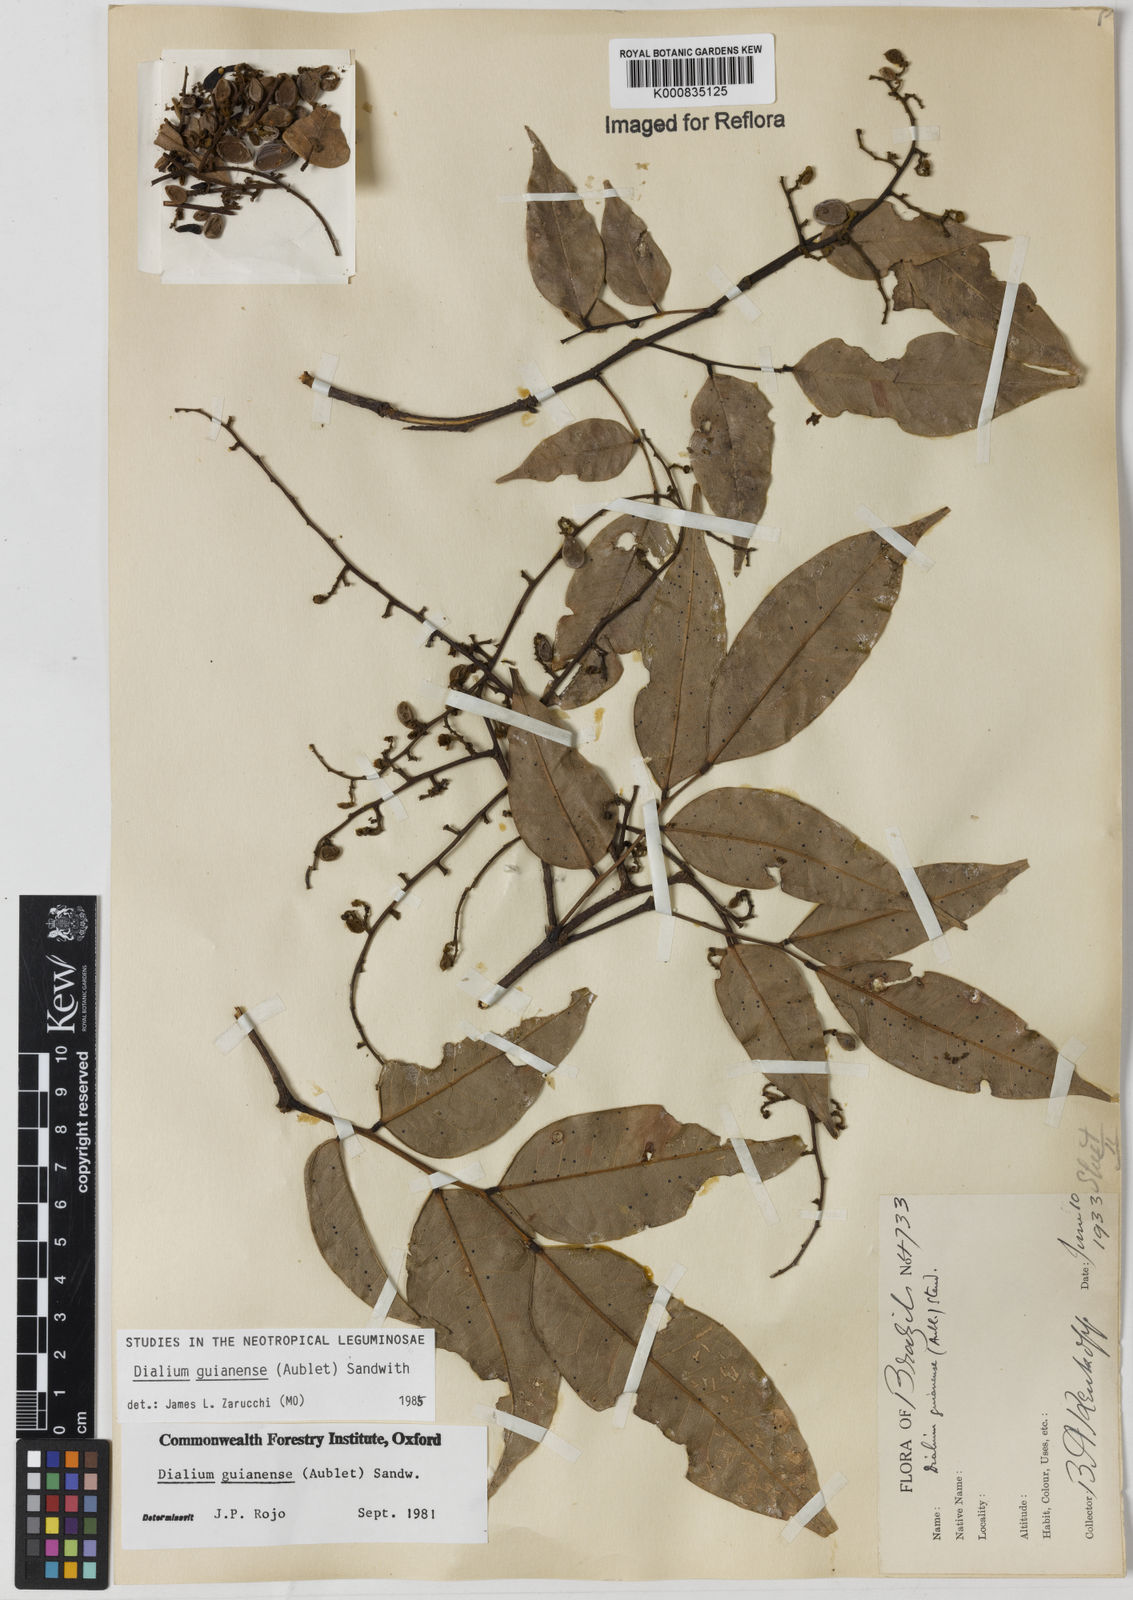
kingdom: Plantae
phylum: Tracheophyta
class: Magnoliopsida
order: Fabales
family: Fabaceae
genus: Dialium
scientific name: Dialium guianense
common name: Ironwood
